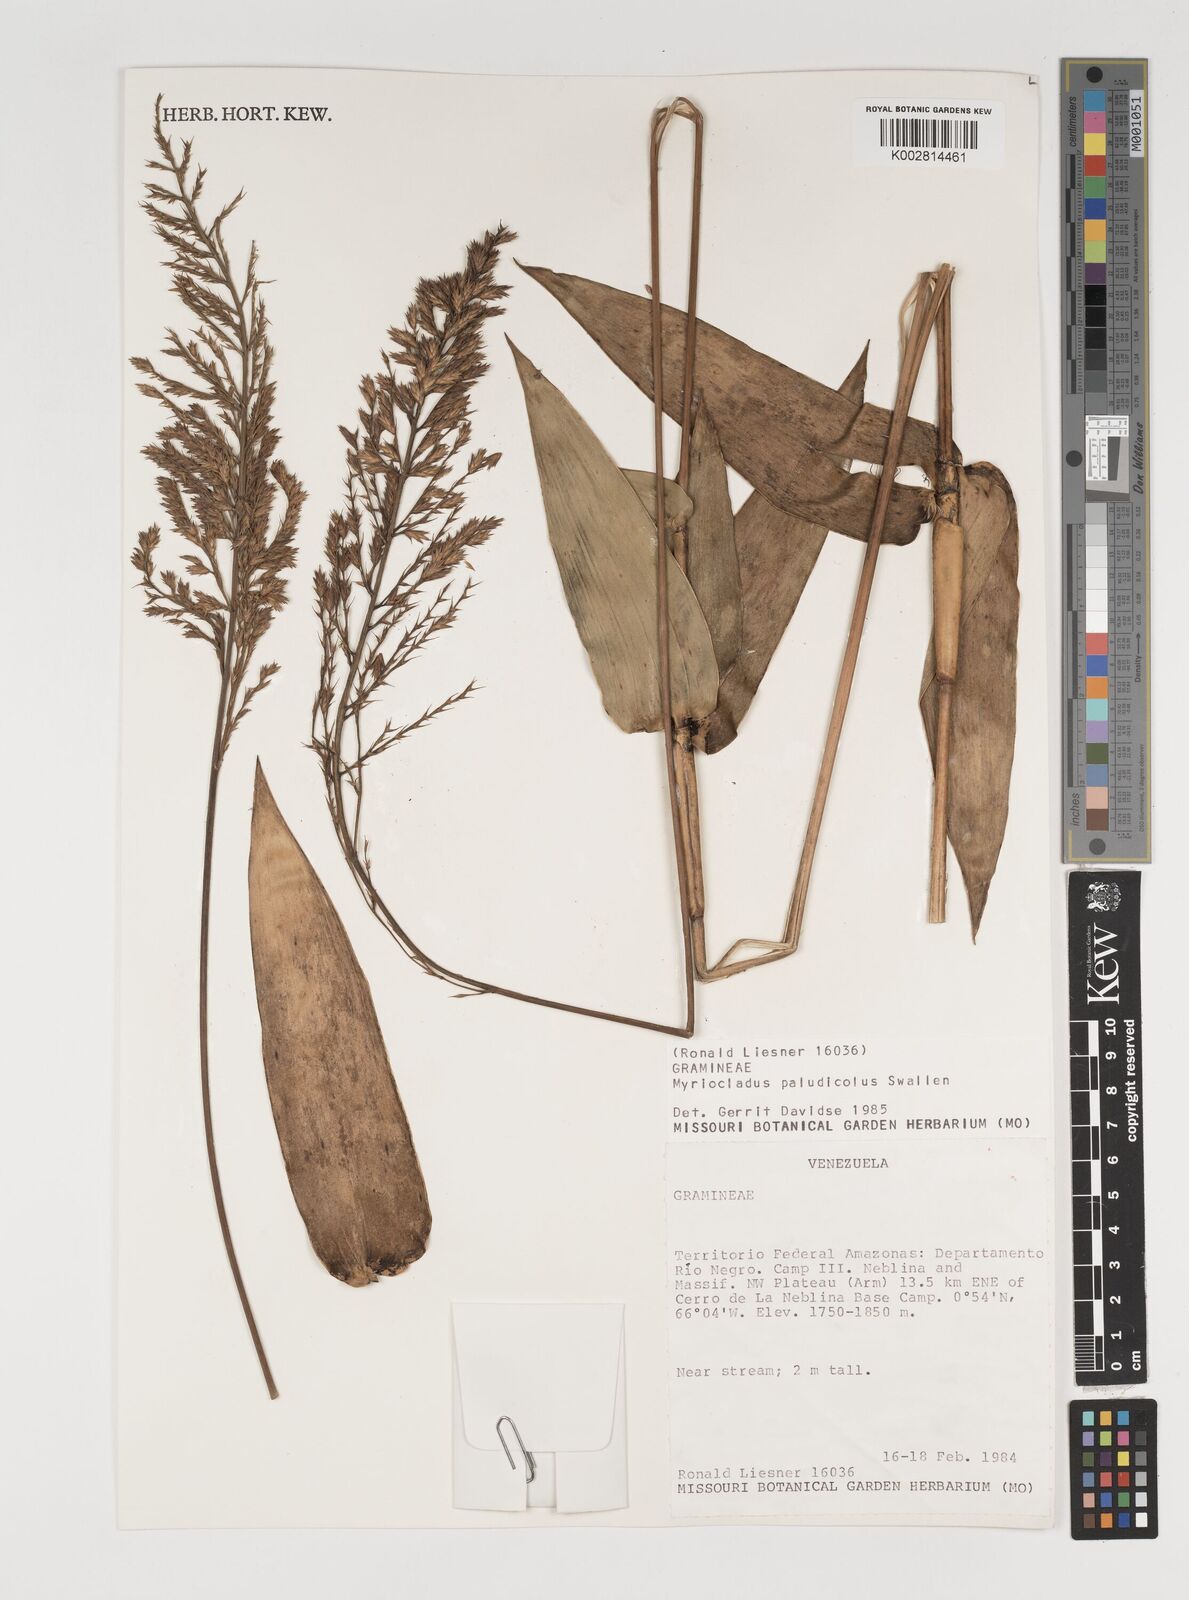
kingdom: Plantae
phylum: Tracheophyta
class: Liliopsida
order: Poales
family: Poaceae
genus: Myriocladus
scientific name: Myriocladus paludicola
